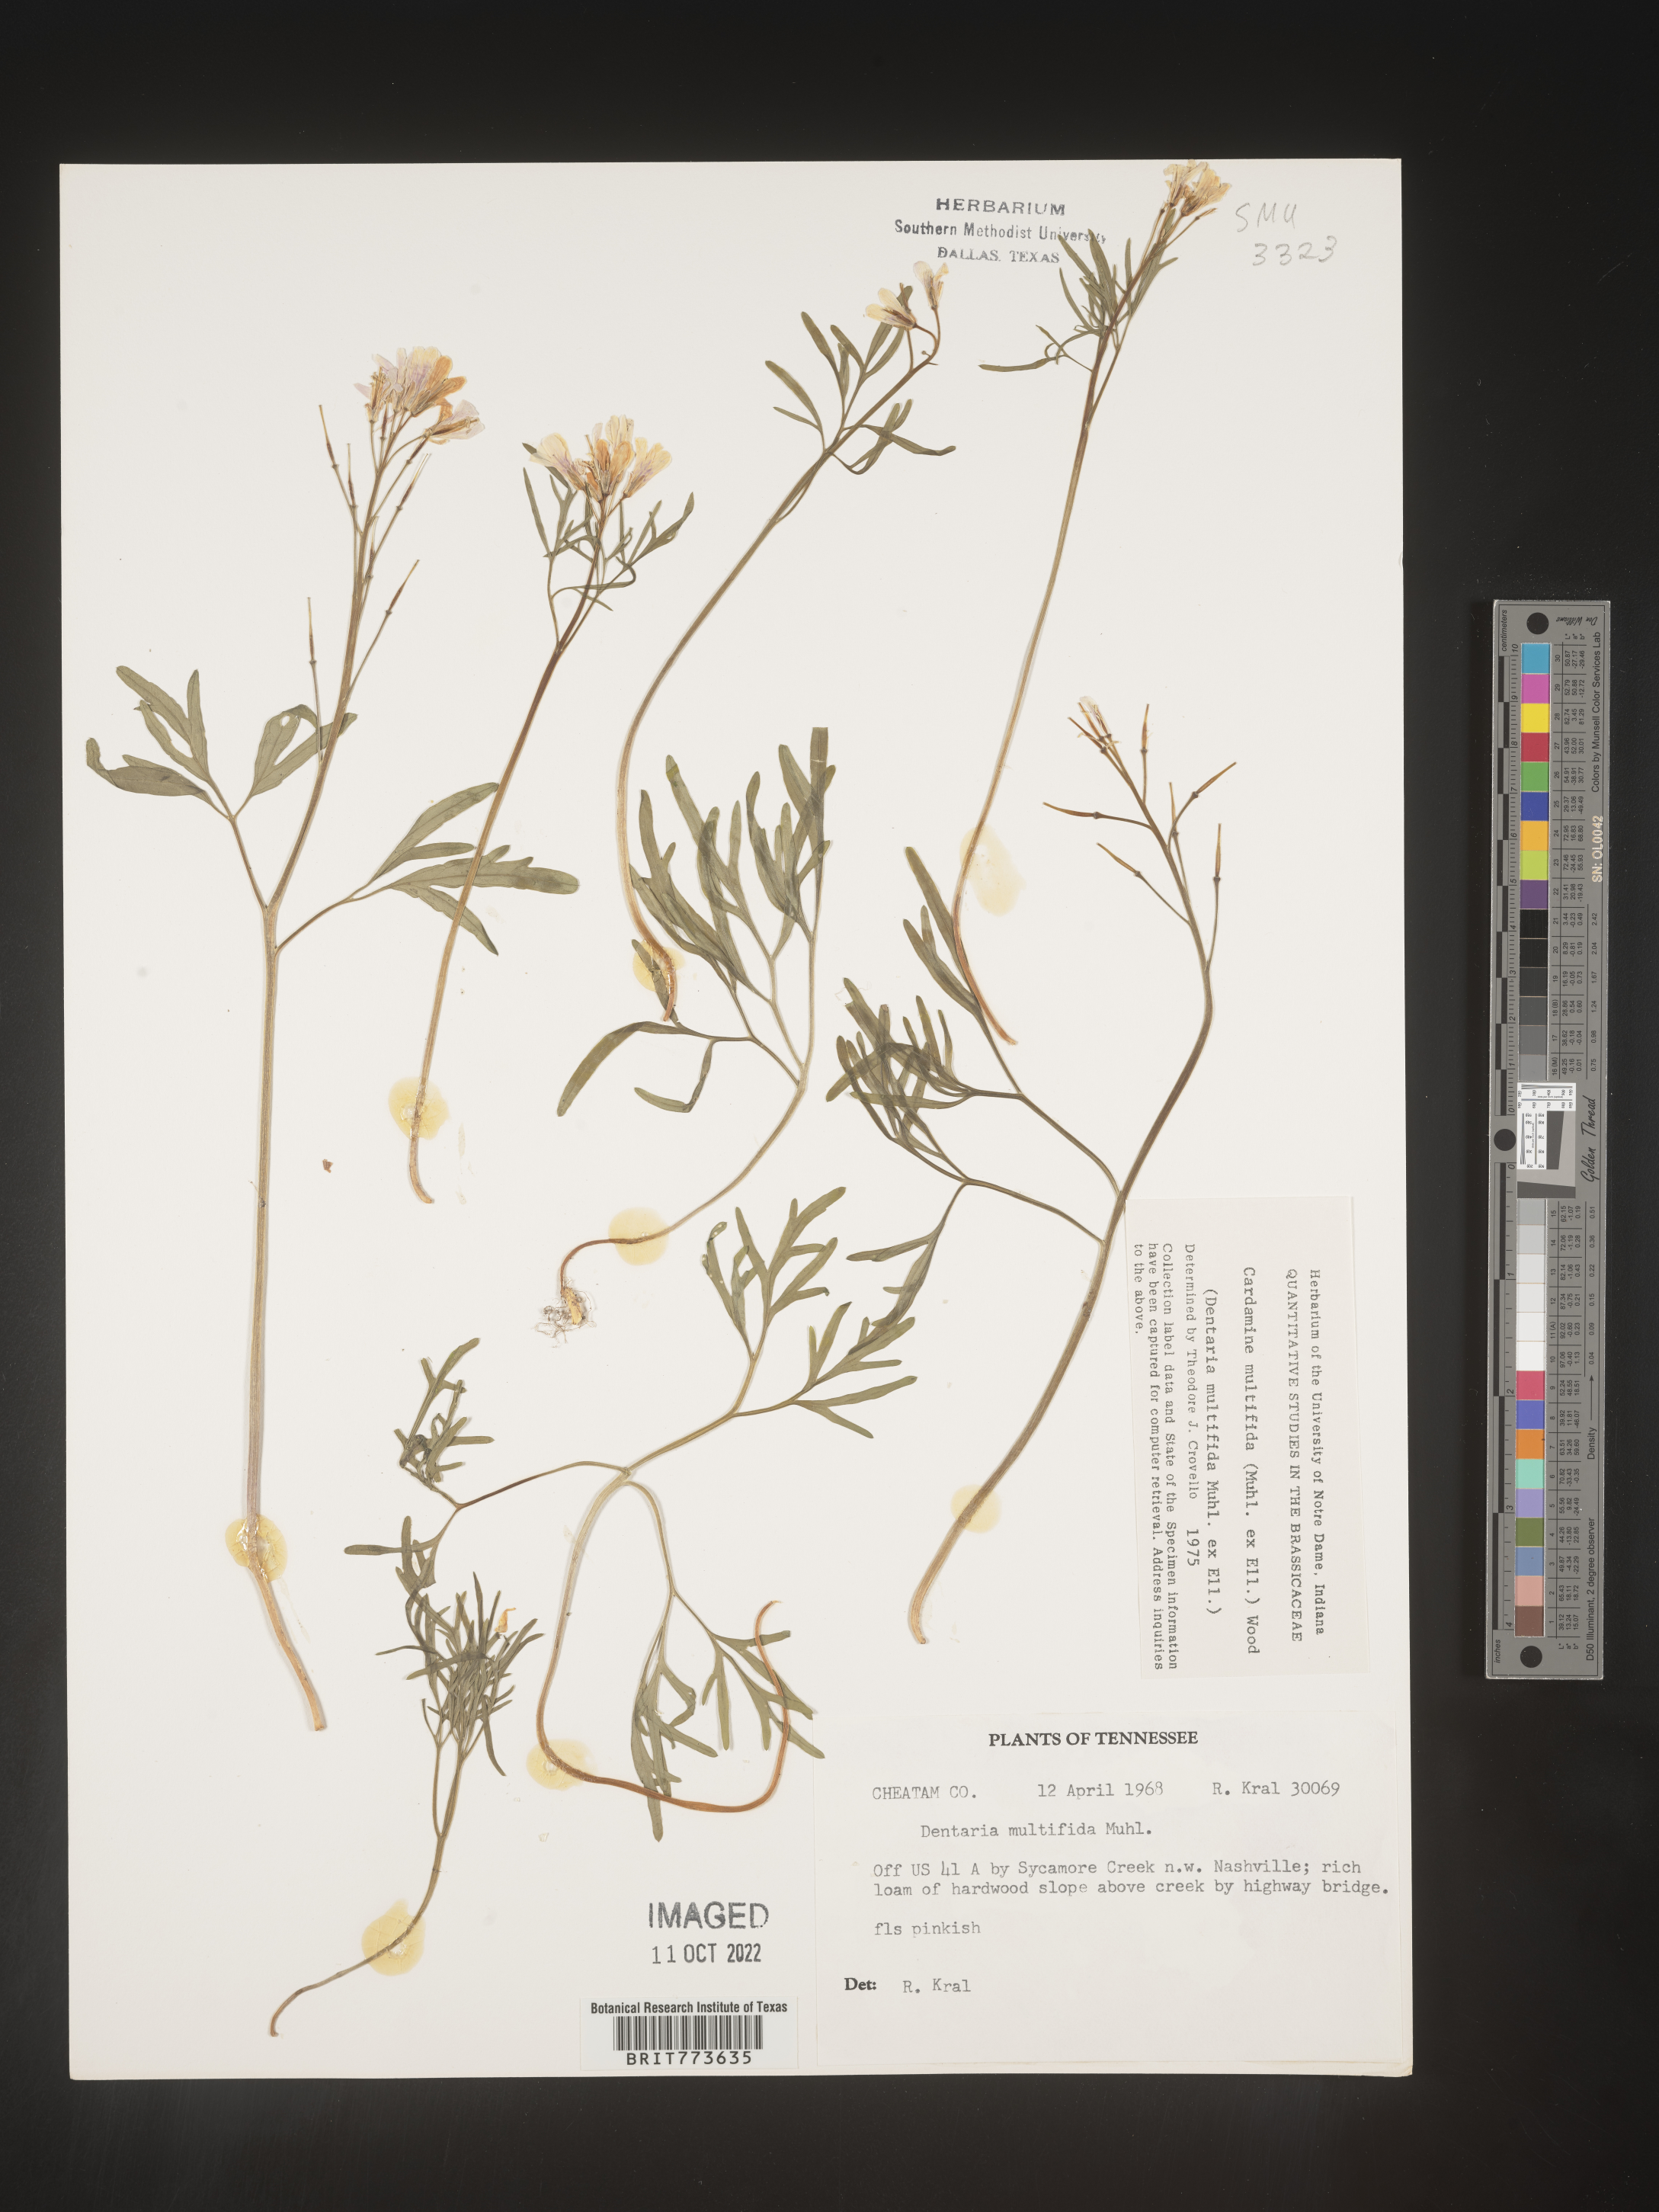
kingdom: Plantae
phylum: Tracheophyta
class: Magnoliopsida
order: Brassicales
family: Brassicaceae
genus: Cardamine
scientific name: Cardamine
